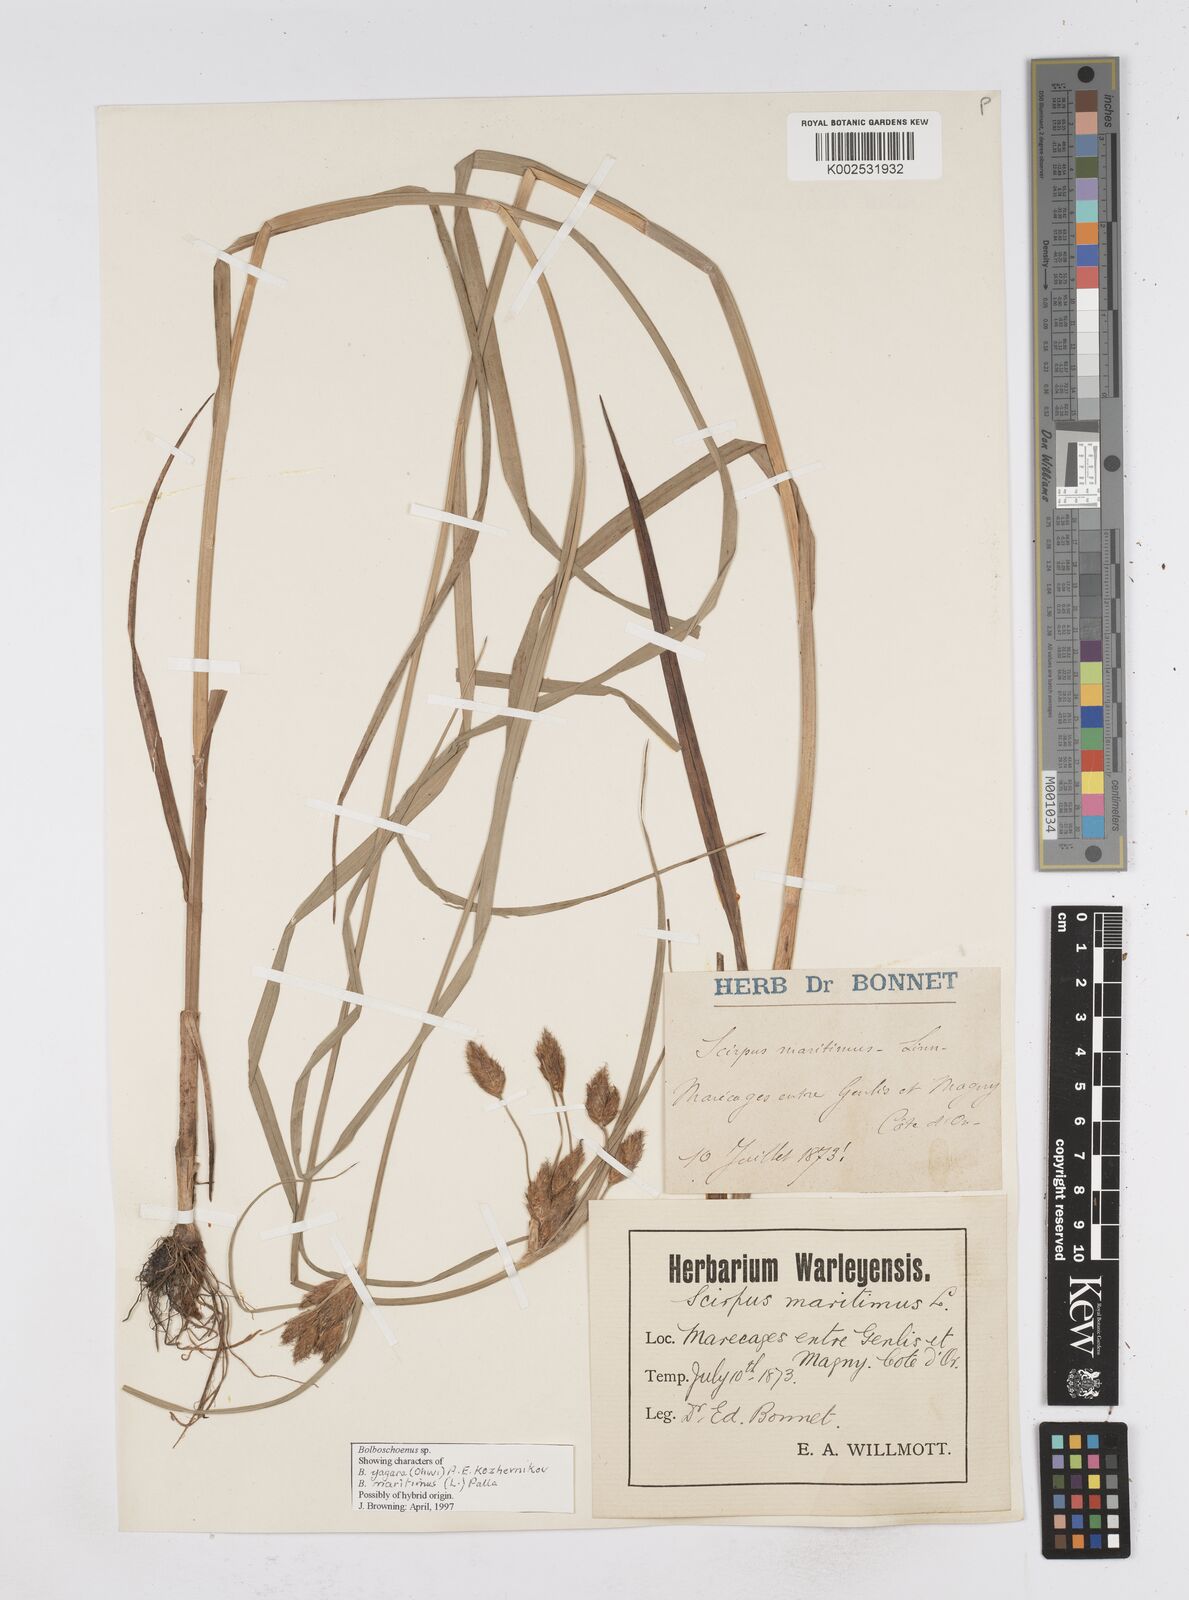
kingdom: Plantae
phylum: Tracheophyta
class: Liliopsida
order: Poales
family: Cyperaceae
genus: Bolboschoenus
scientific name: Bolboschoenus maritimus
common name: Sea club-rush
